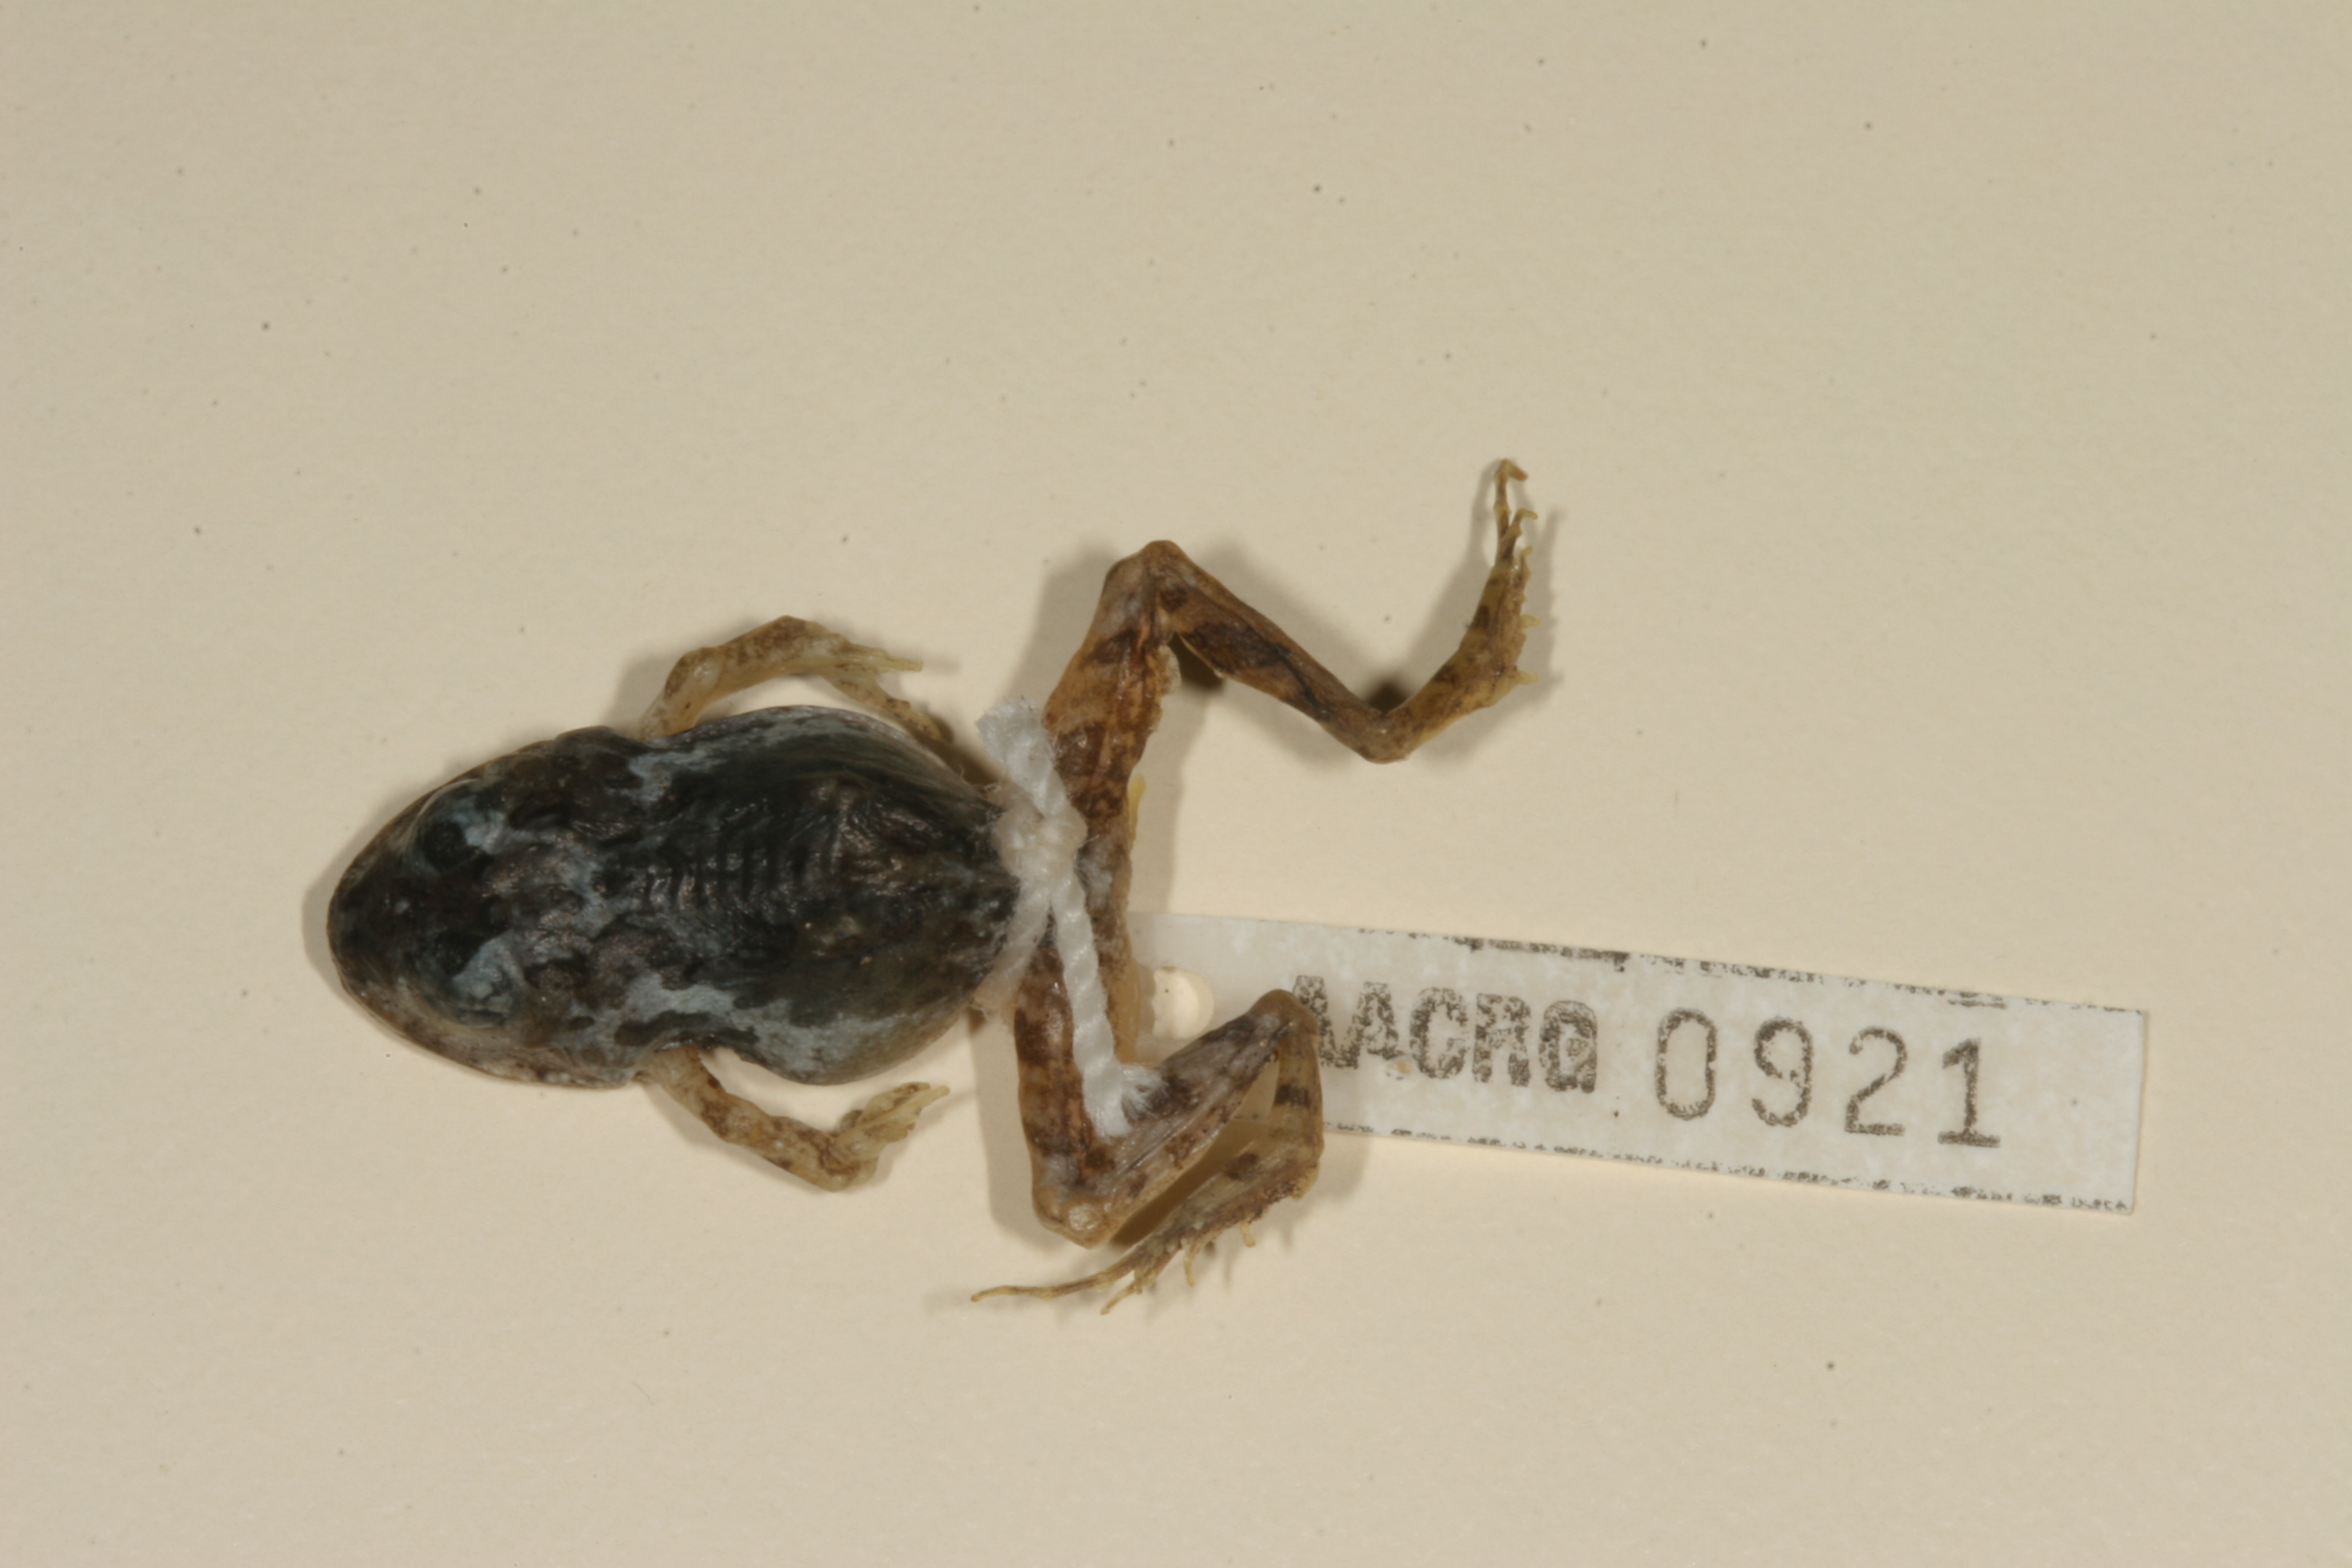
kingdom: Animalia
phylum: Chordata
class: Amphibia
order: Anura
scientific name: Anura
